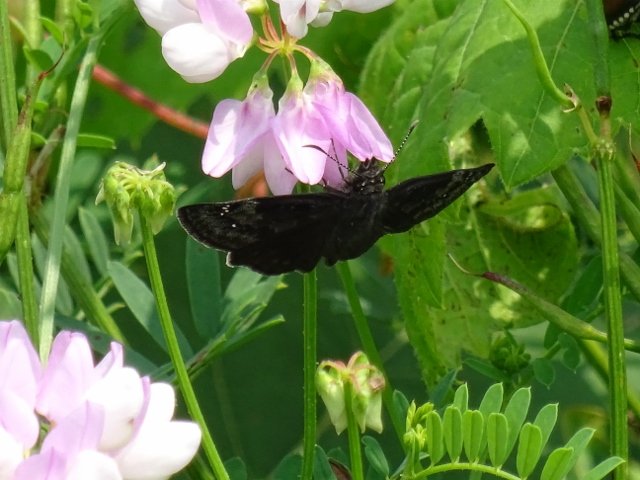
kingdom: Animalia
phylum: Arthropoda
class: Insecta
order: Lepidoptera
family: Hesperiidae
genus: Gesta
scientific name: Gesta
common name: Wild Indigo Duskywing
